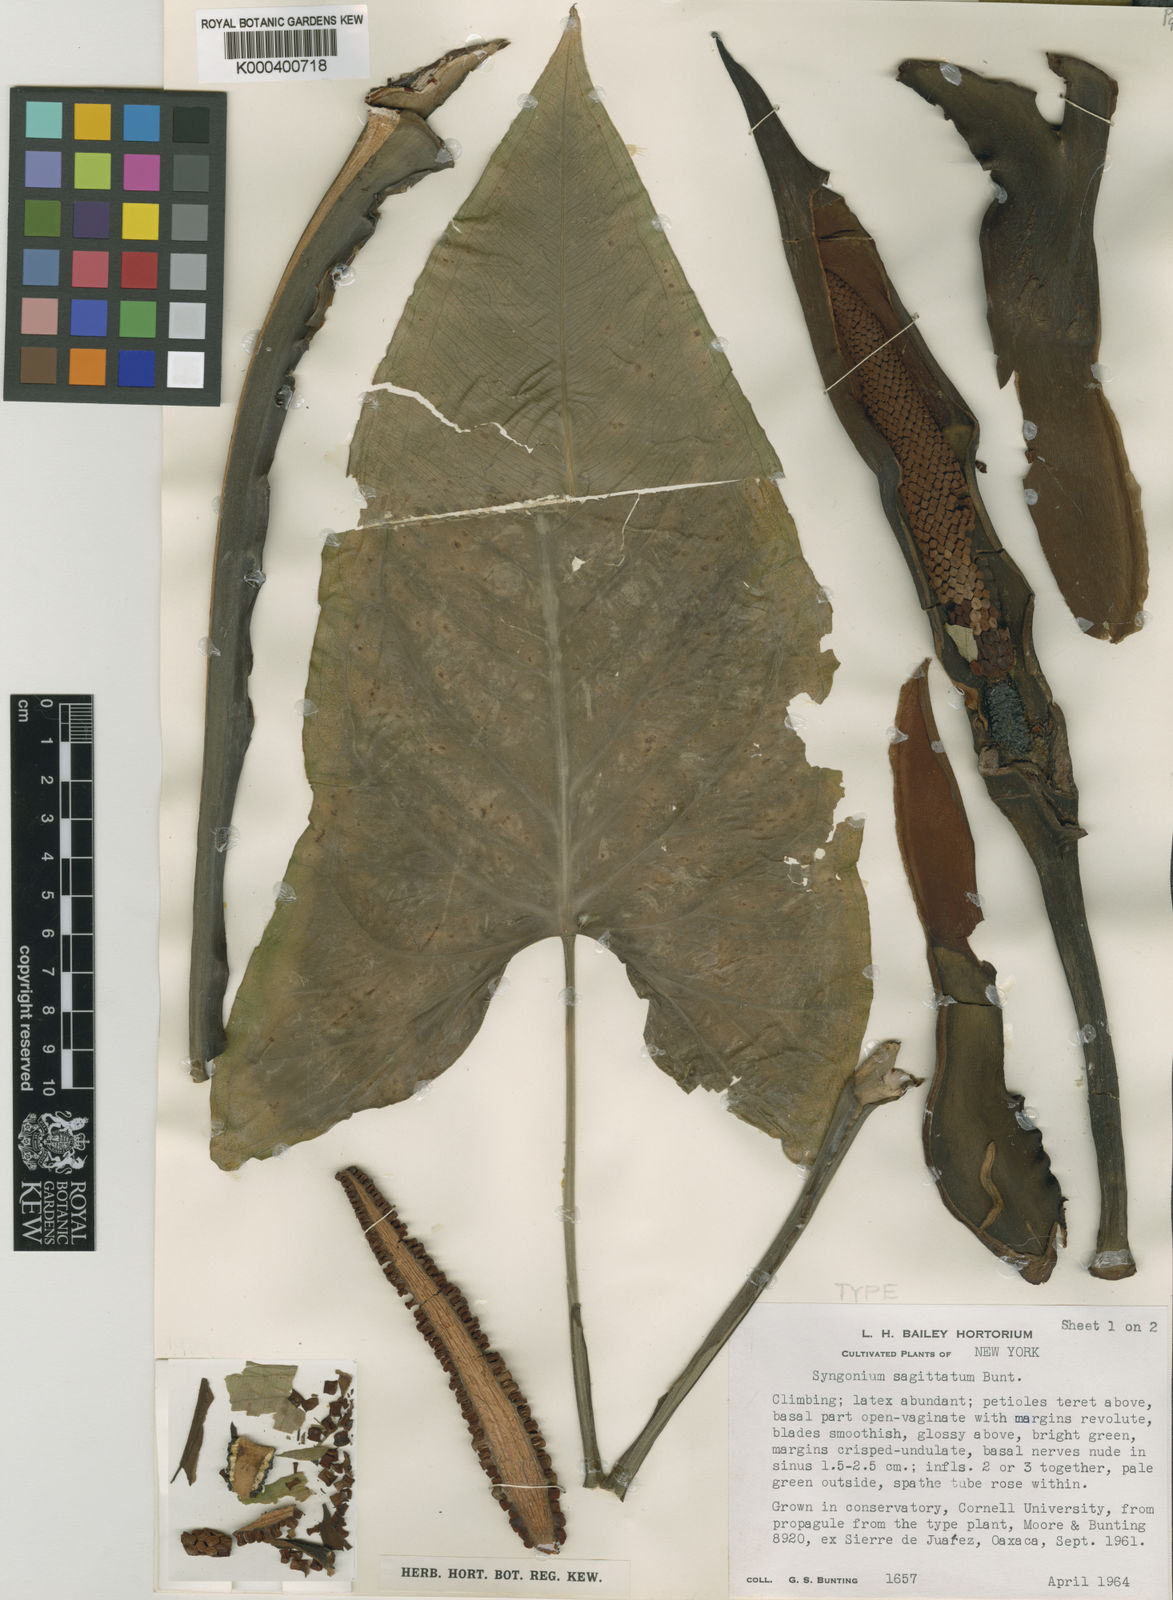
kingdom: Plantae
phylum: Tracheophyta
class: Liliopsida
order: Alismatales
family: Araceae
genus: Syngonium
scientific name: Syngonium sagittatum
